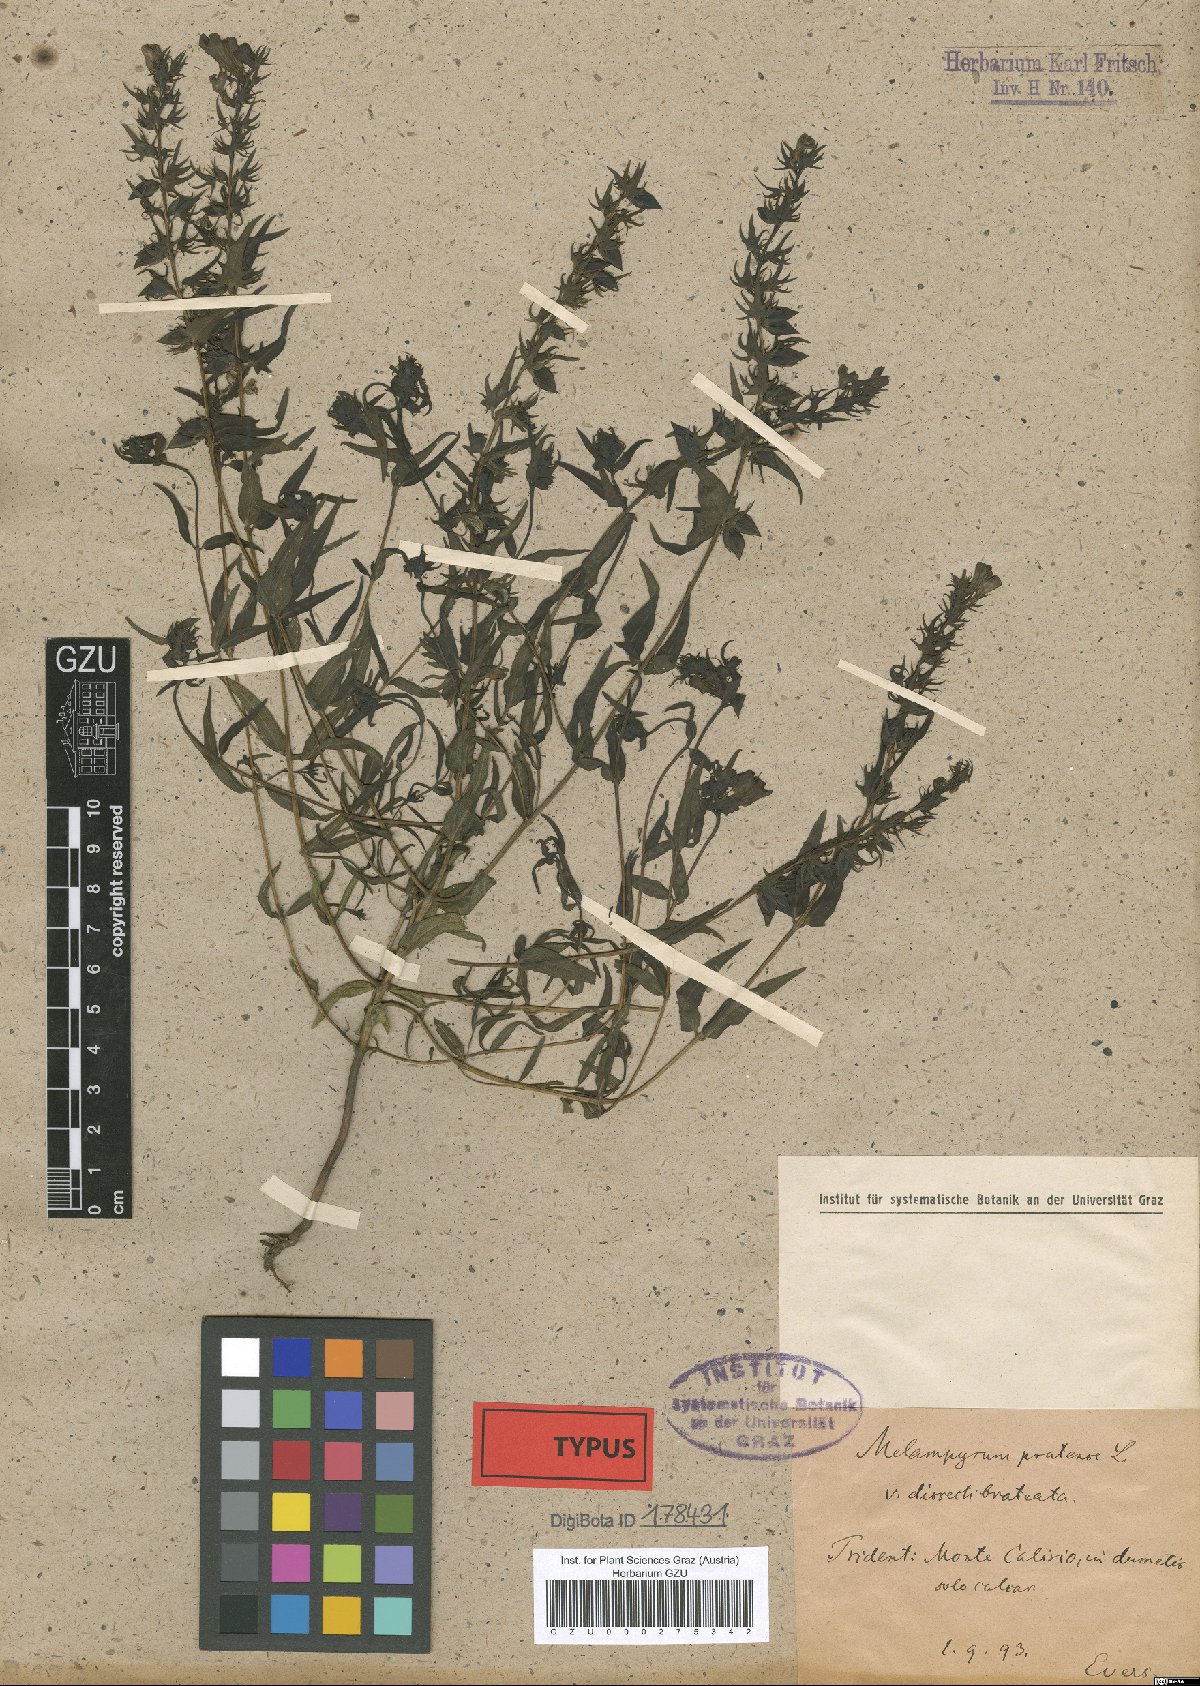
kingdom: Plantae
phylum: Tracheophyta
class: Magnoliopsida
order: Lamiales
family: Orobanchaceae
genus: Melampyrum
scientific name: Melampyrum pratense
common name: Common cow-wheat
